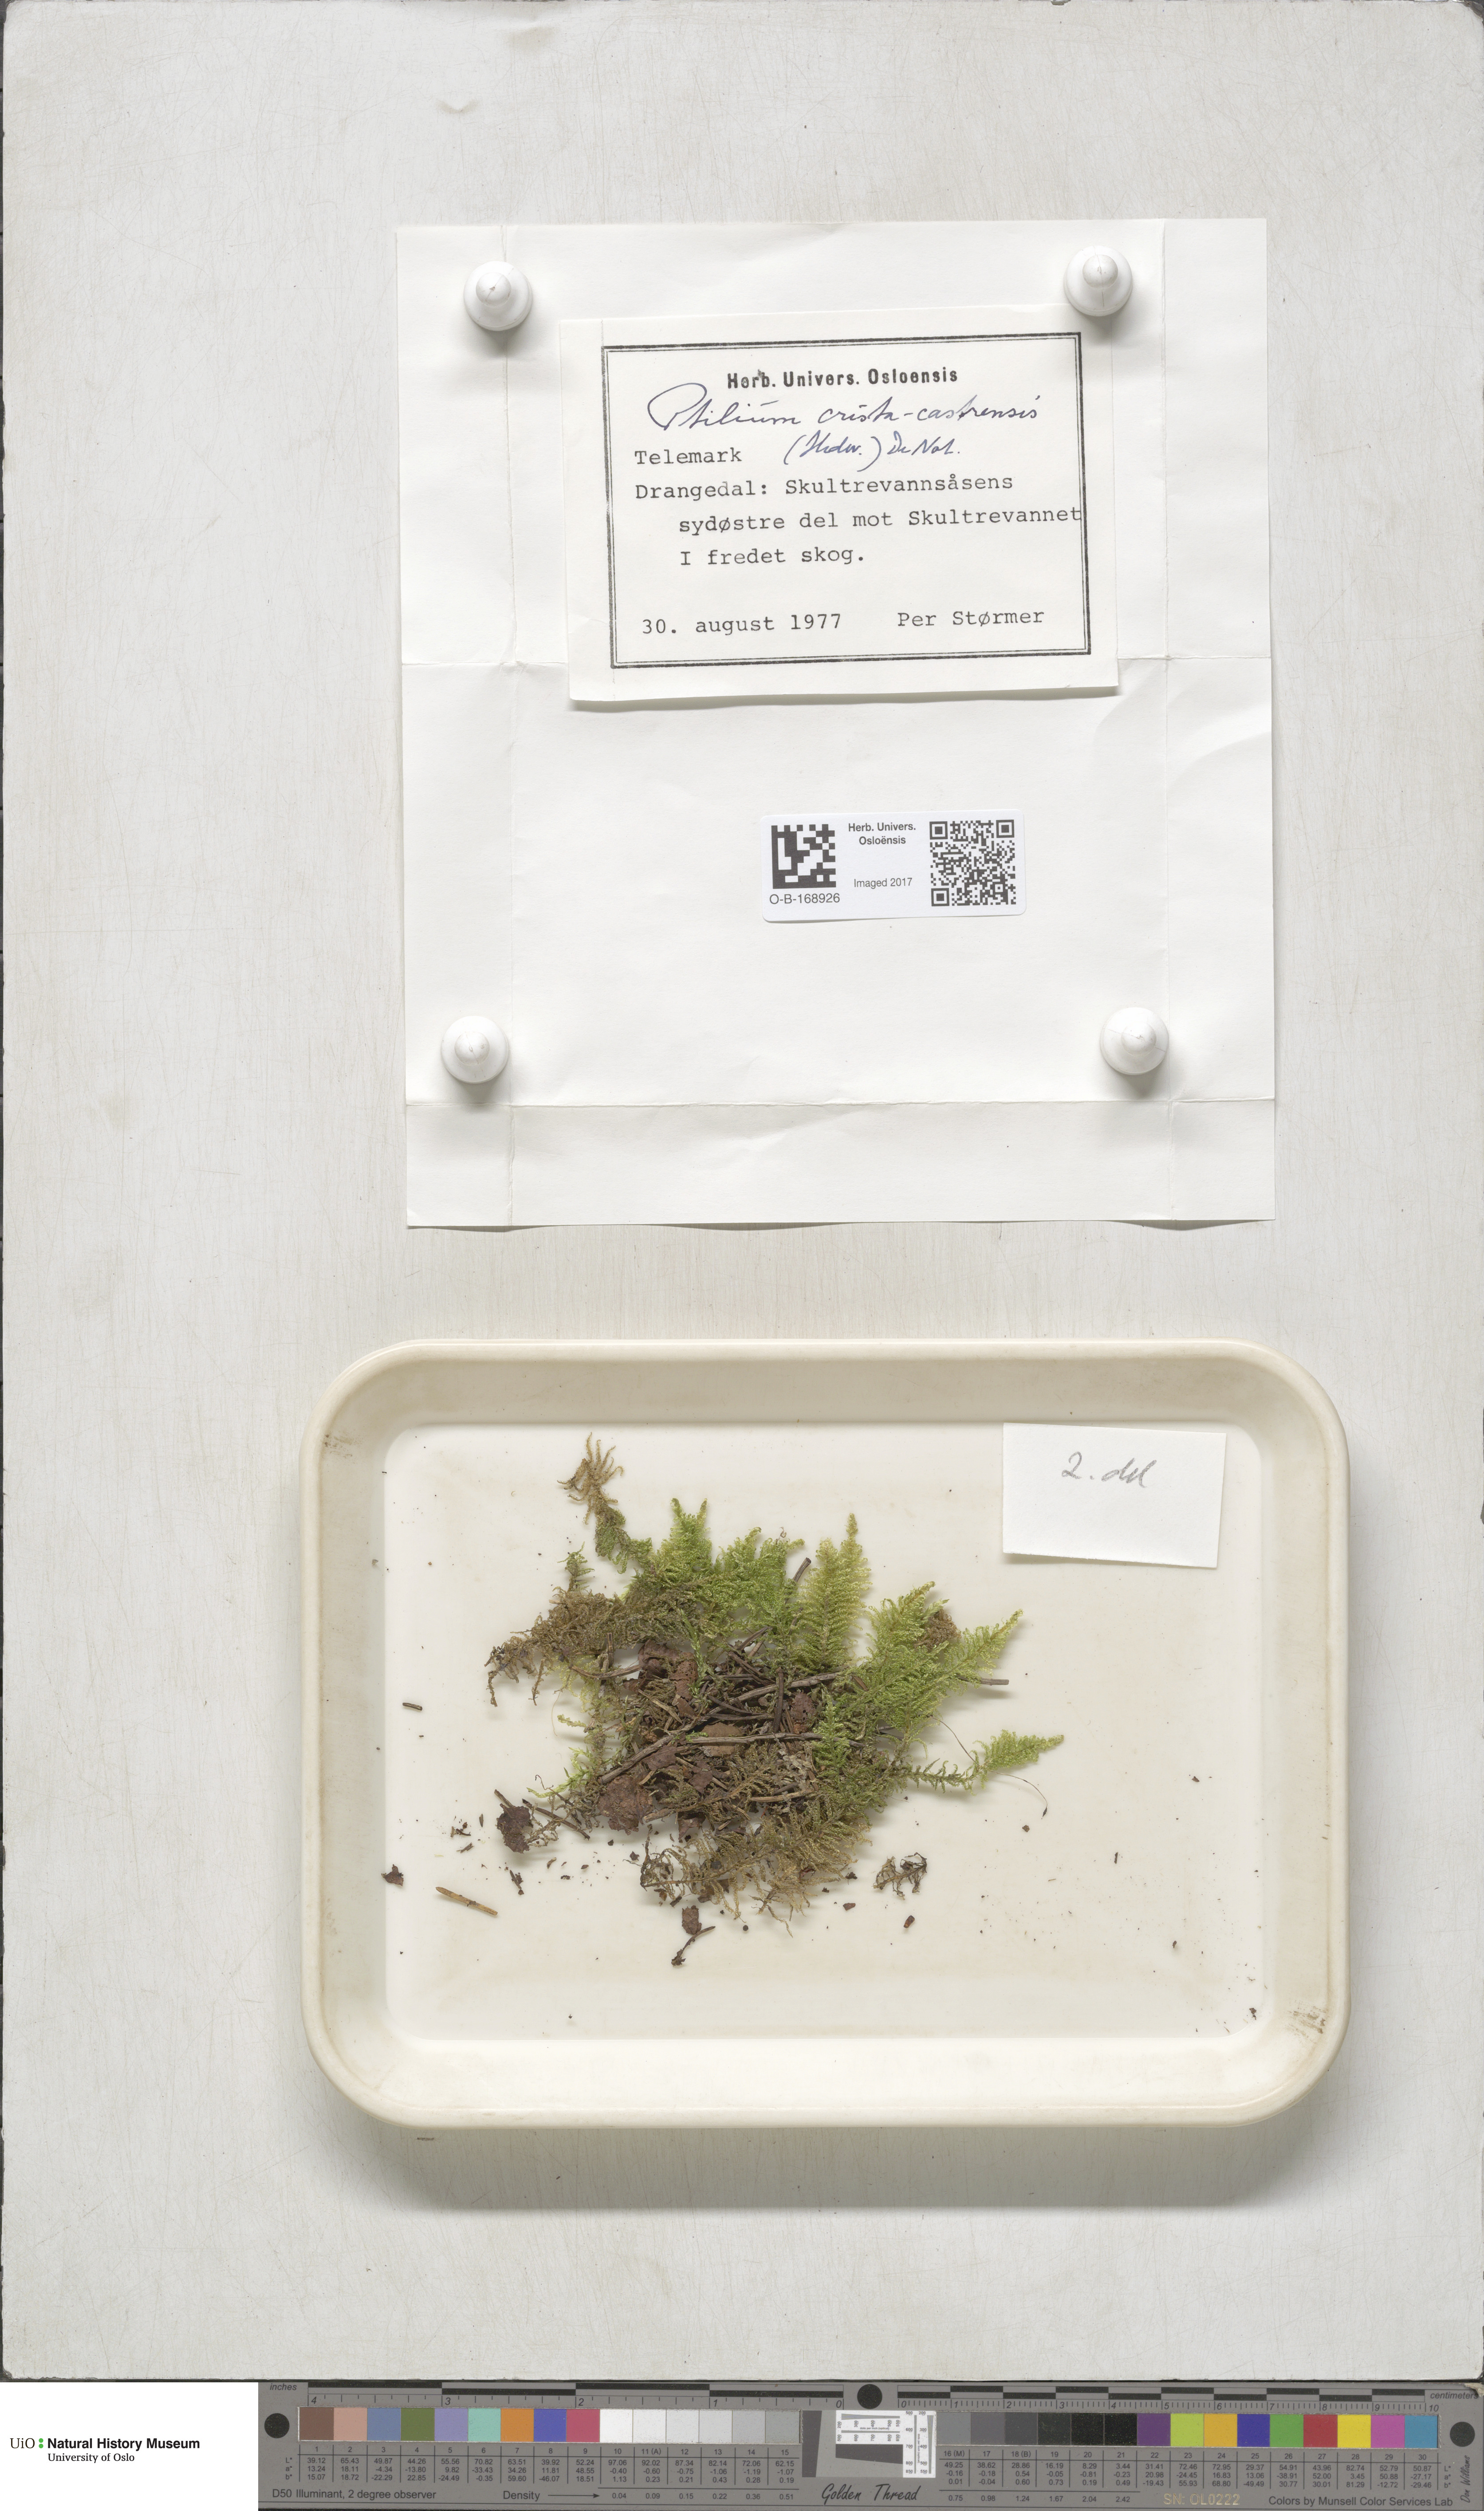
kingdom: Plantae
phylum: Bryophyta
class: Bryopsida
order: Hypnales
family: Pylaisiaceae
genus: Ptilium
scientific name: Ptilium crista-castrensis
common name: Knight's plume moss
